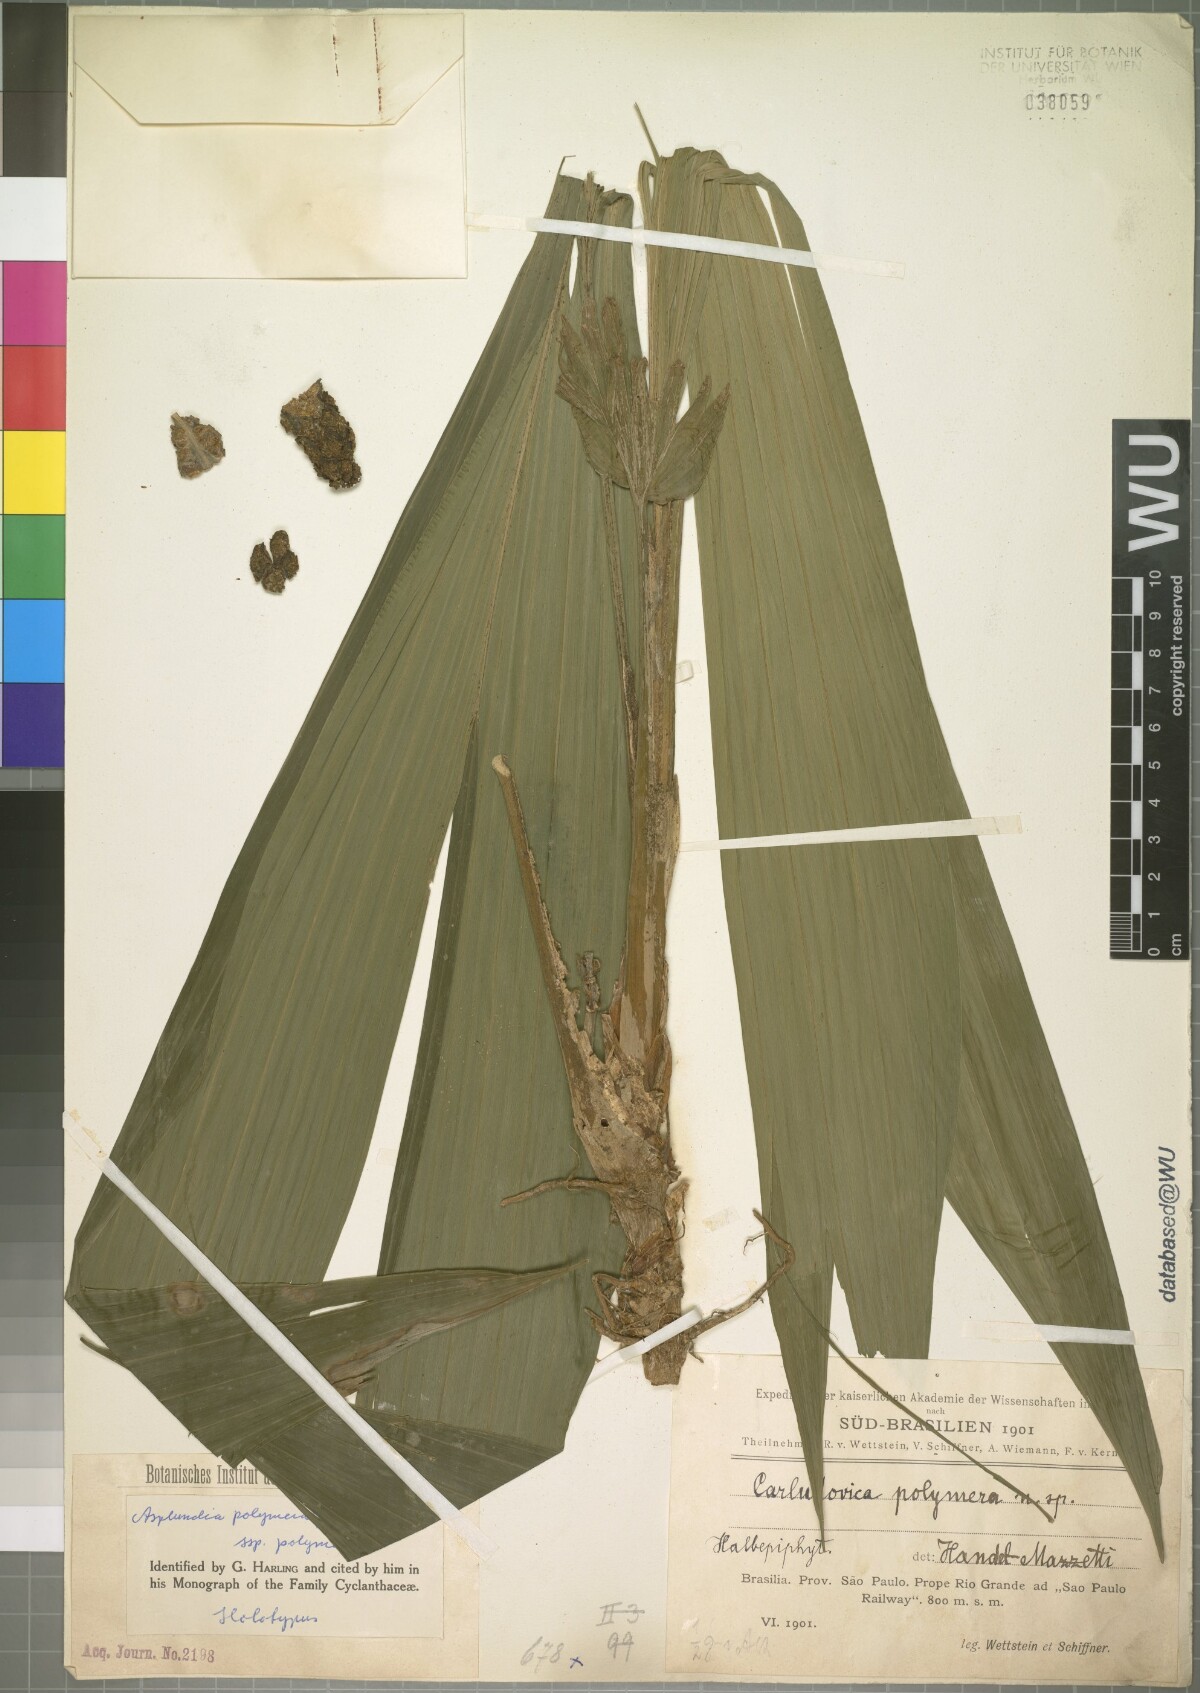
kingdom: Plantae
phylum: Tracheophyta
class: Liliopsida
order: Pandanales
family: Cyclanthaceae
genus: Asplundia
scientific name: Asplundia polymera
